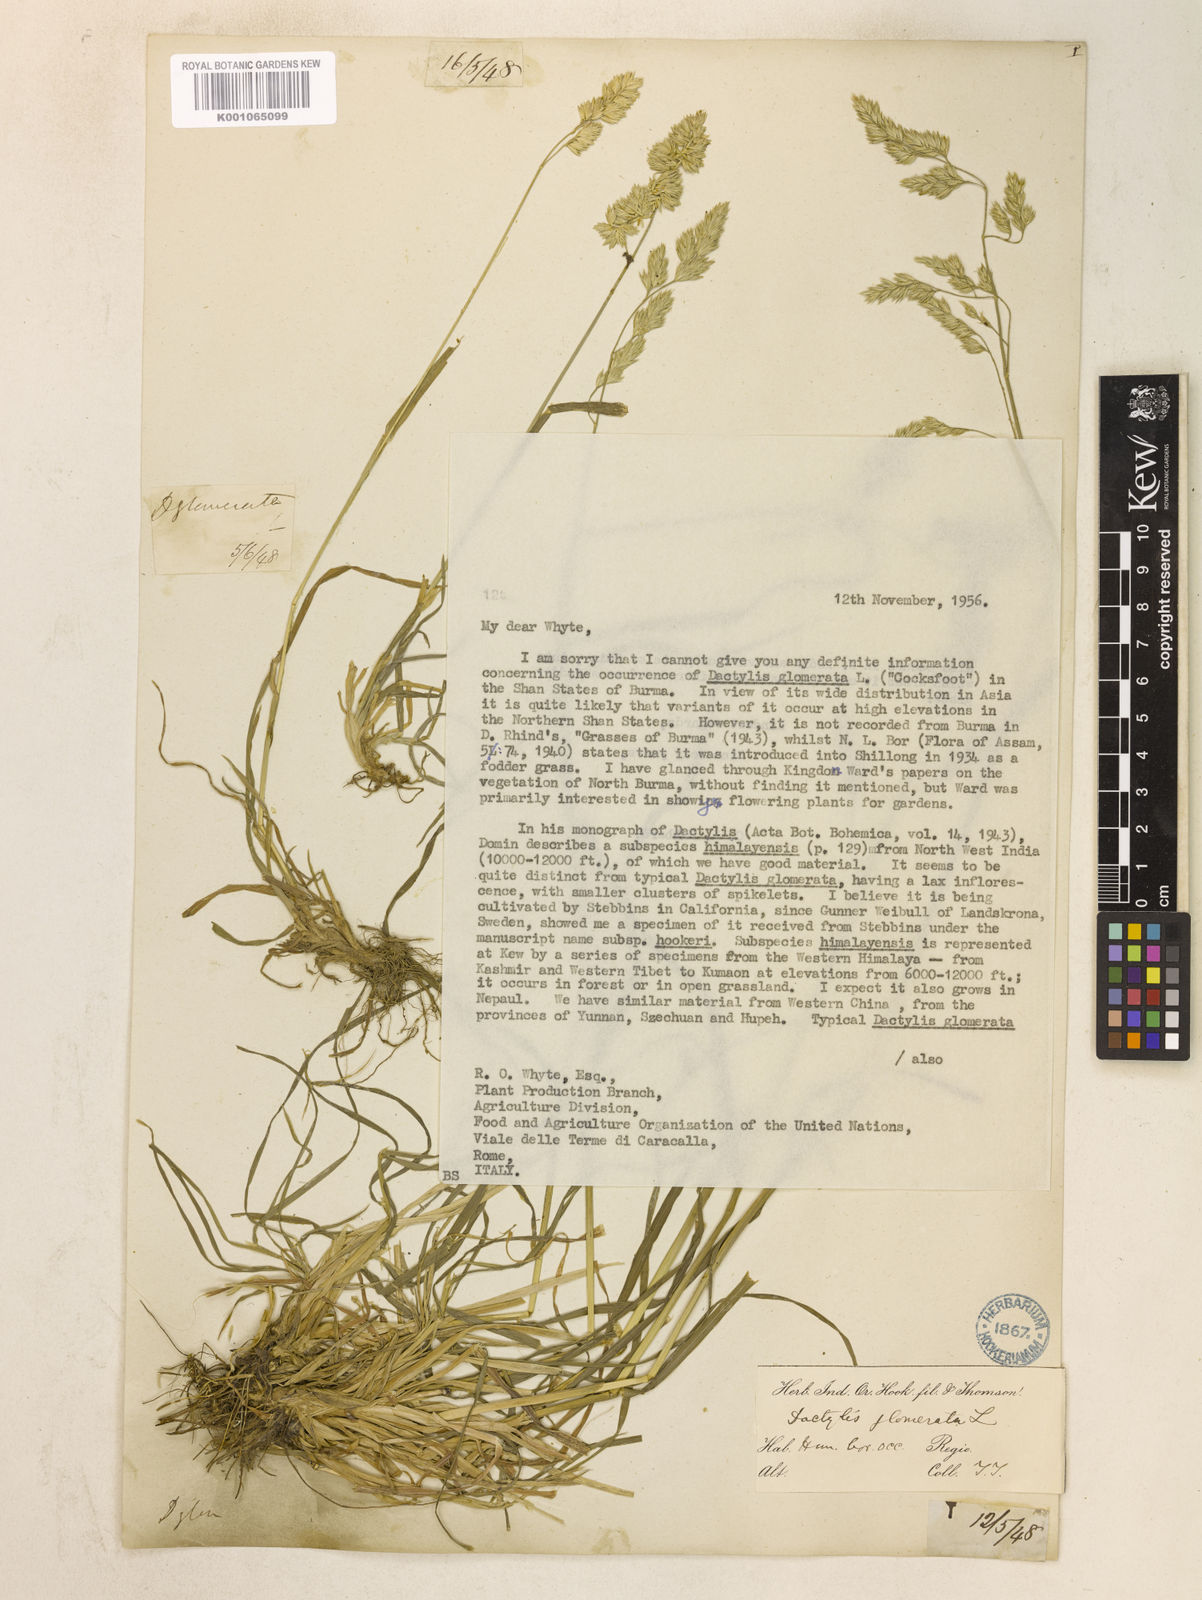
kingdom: Plantae
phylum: Tracheophyta
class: Liliopsida
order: Poales
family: Poaceae
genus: Dactylis
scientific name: Dactylis glomerata
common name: Orchardgrass
